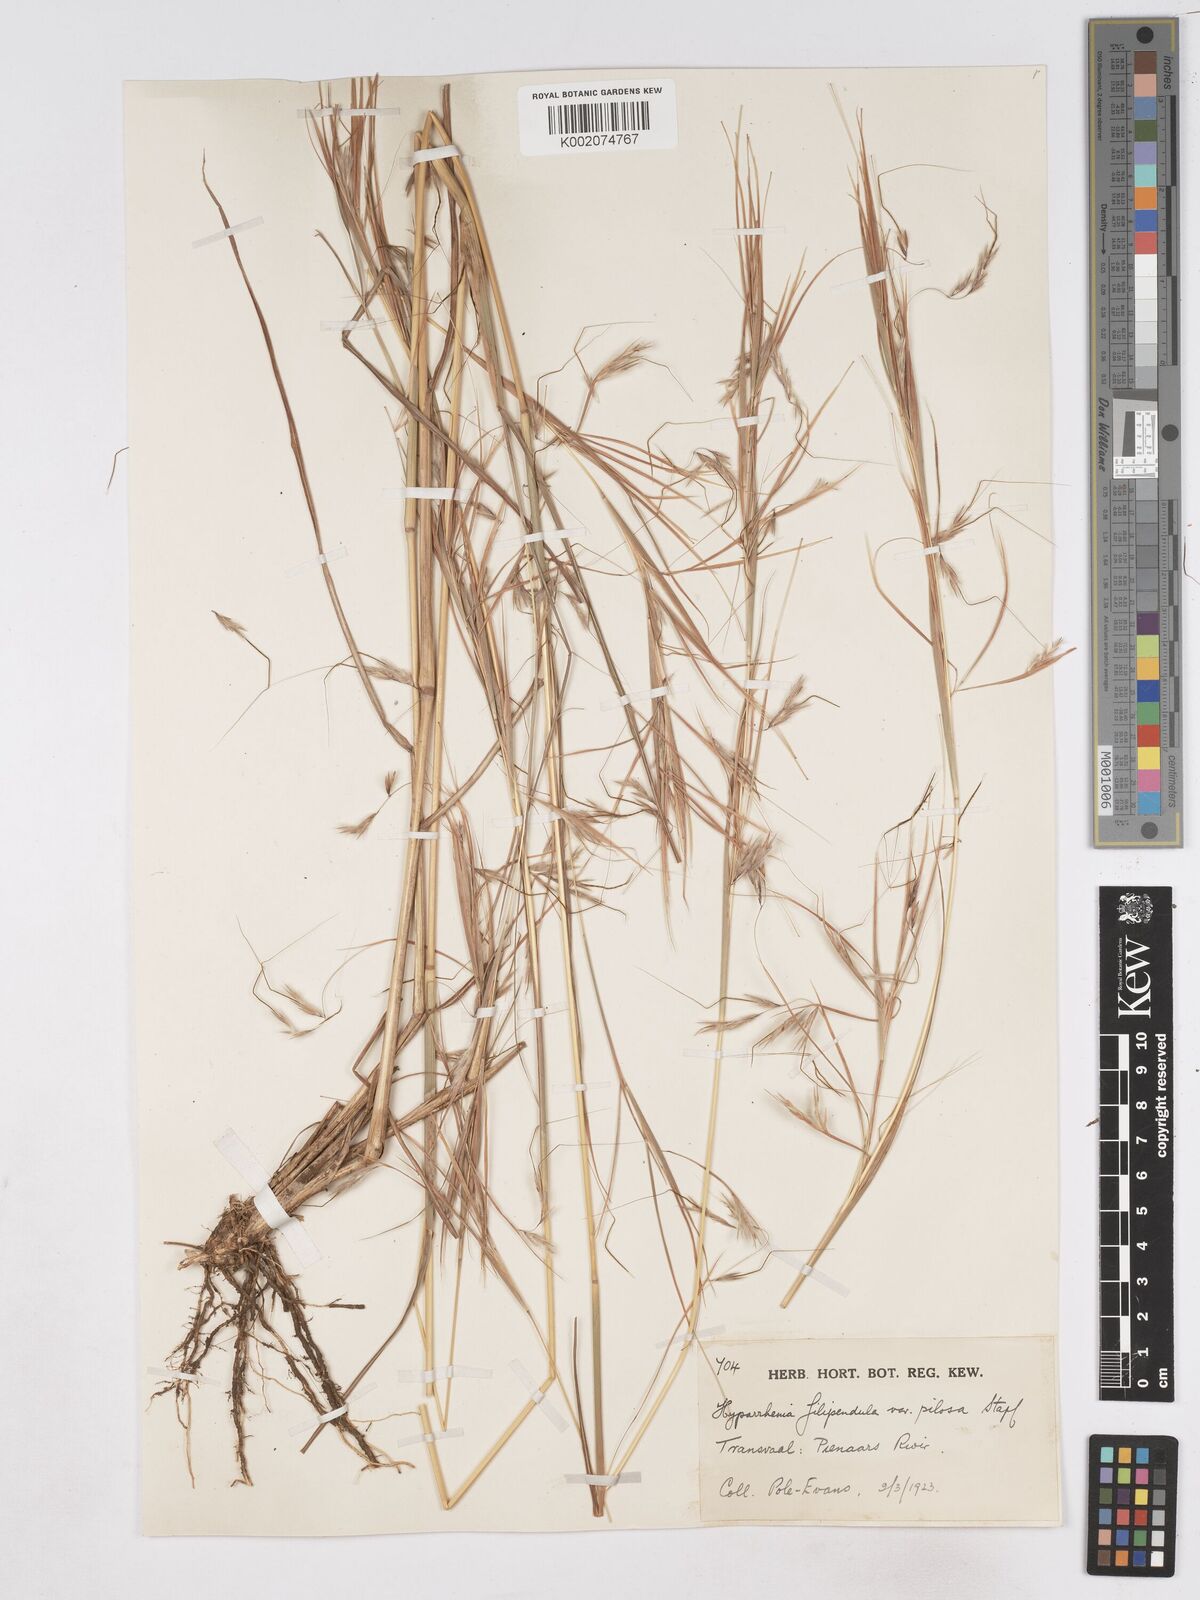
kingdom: Plantae
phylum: Tracheophyta
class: Liliopsida
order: Poales
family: Poaceae
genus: Hyparrhenia
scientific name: Hyparrhenia filipendula
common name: Tambookie grass
